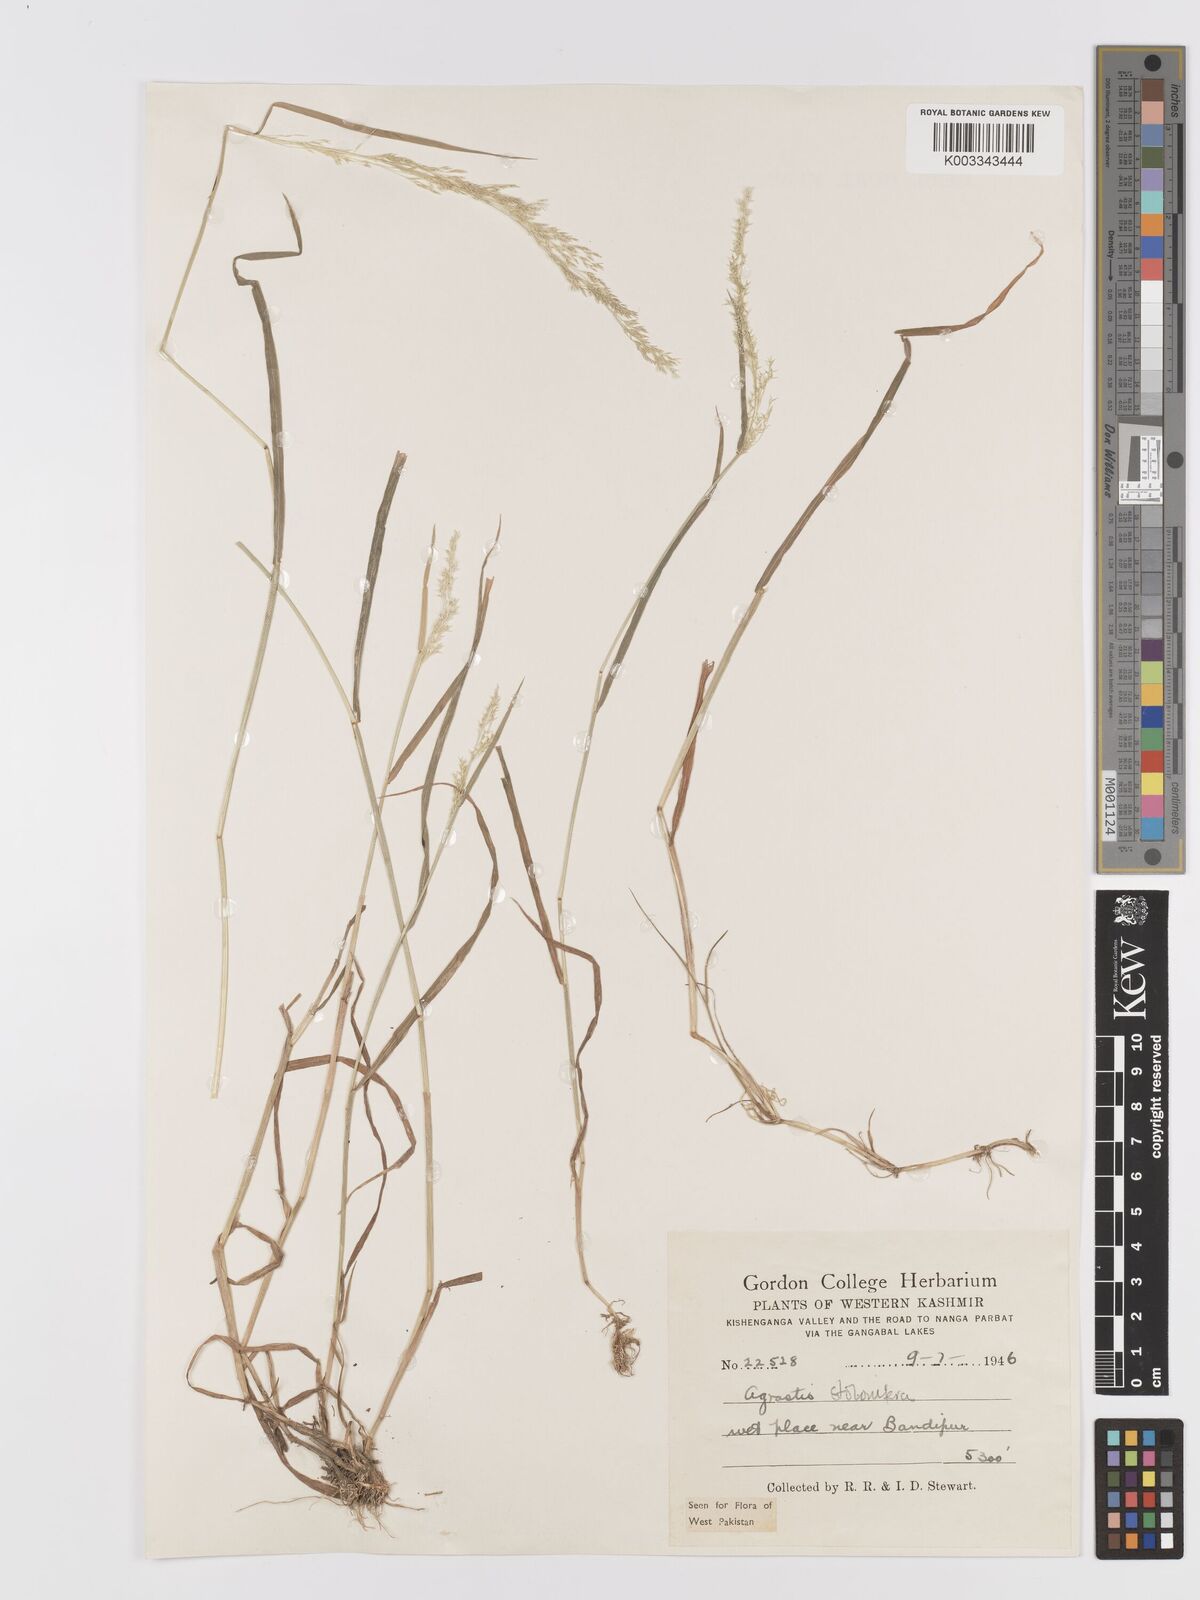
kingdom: Plantae
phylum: Tracheophyta
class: Liliopsida
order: Poales
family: Poaceae
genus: Agrostis
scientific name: Agrostis stolonifera
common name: Creeping bentgrass
